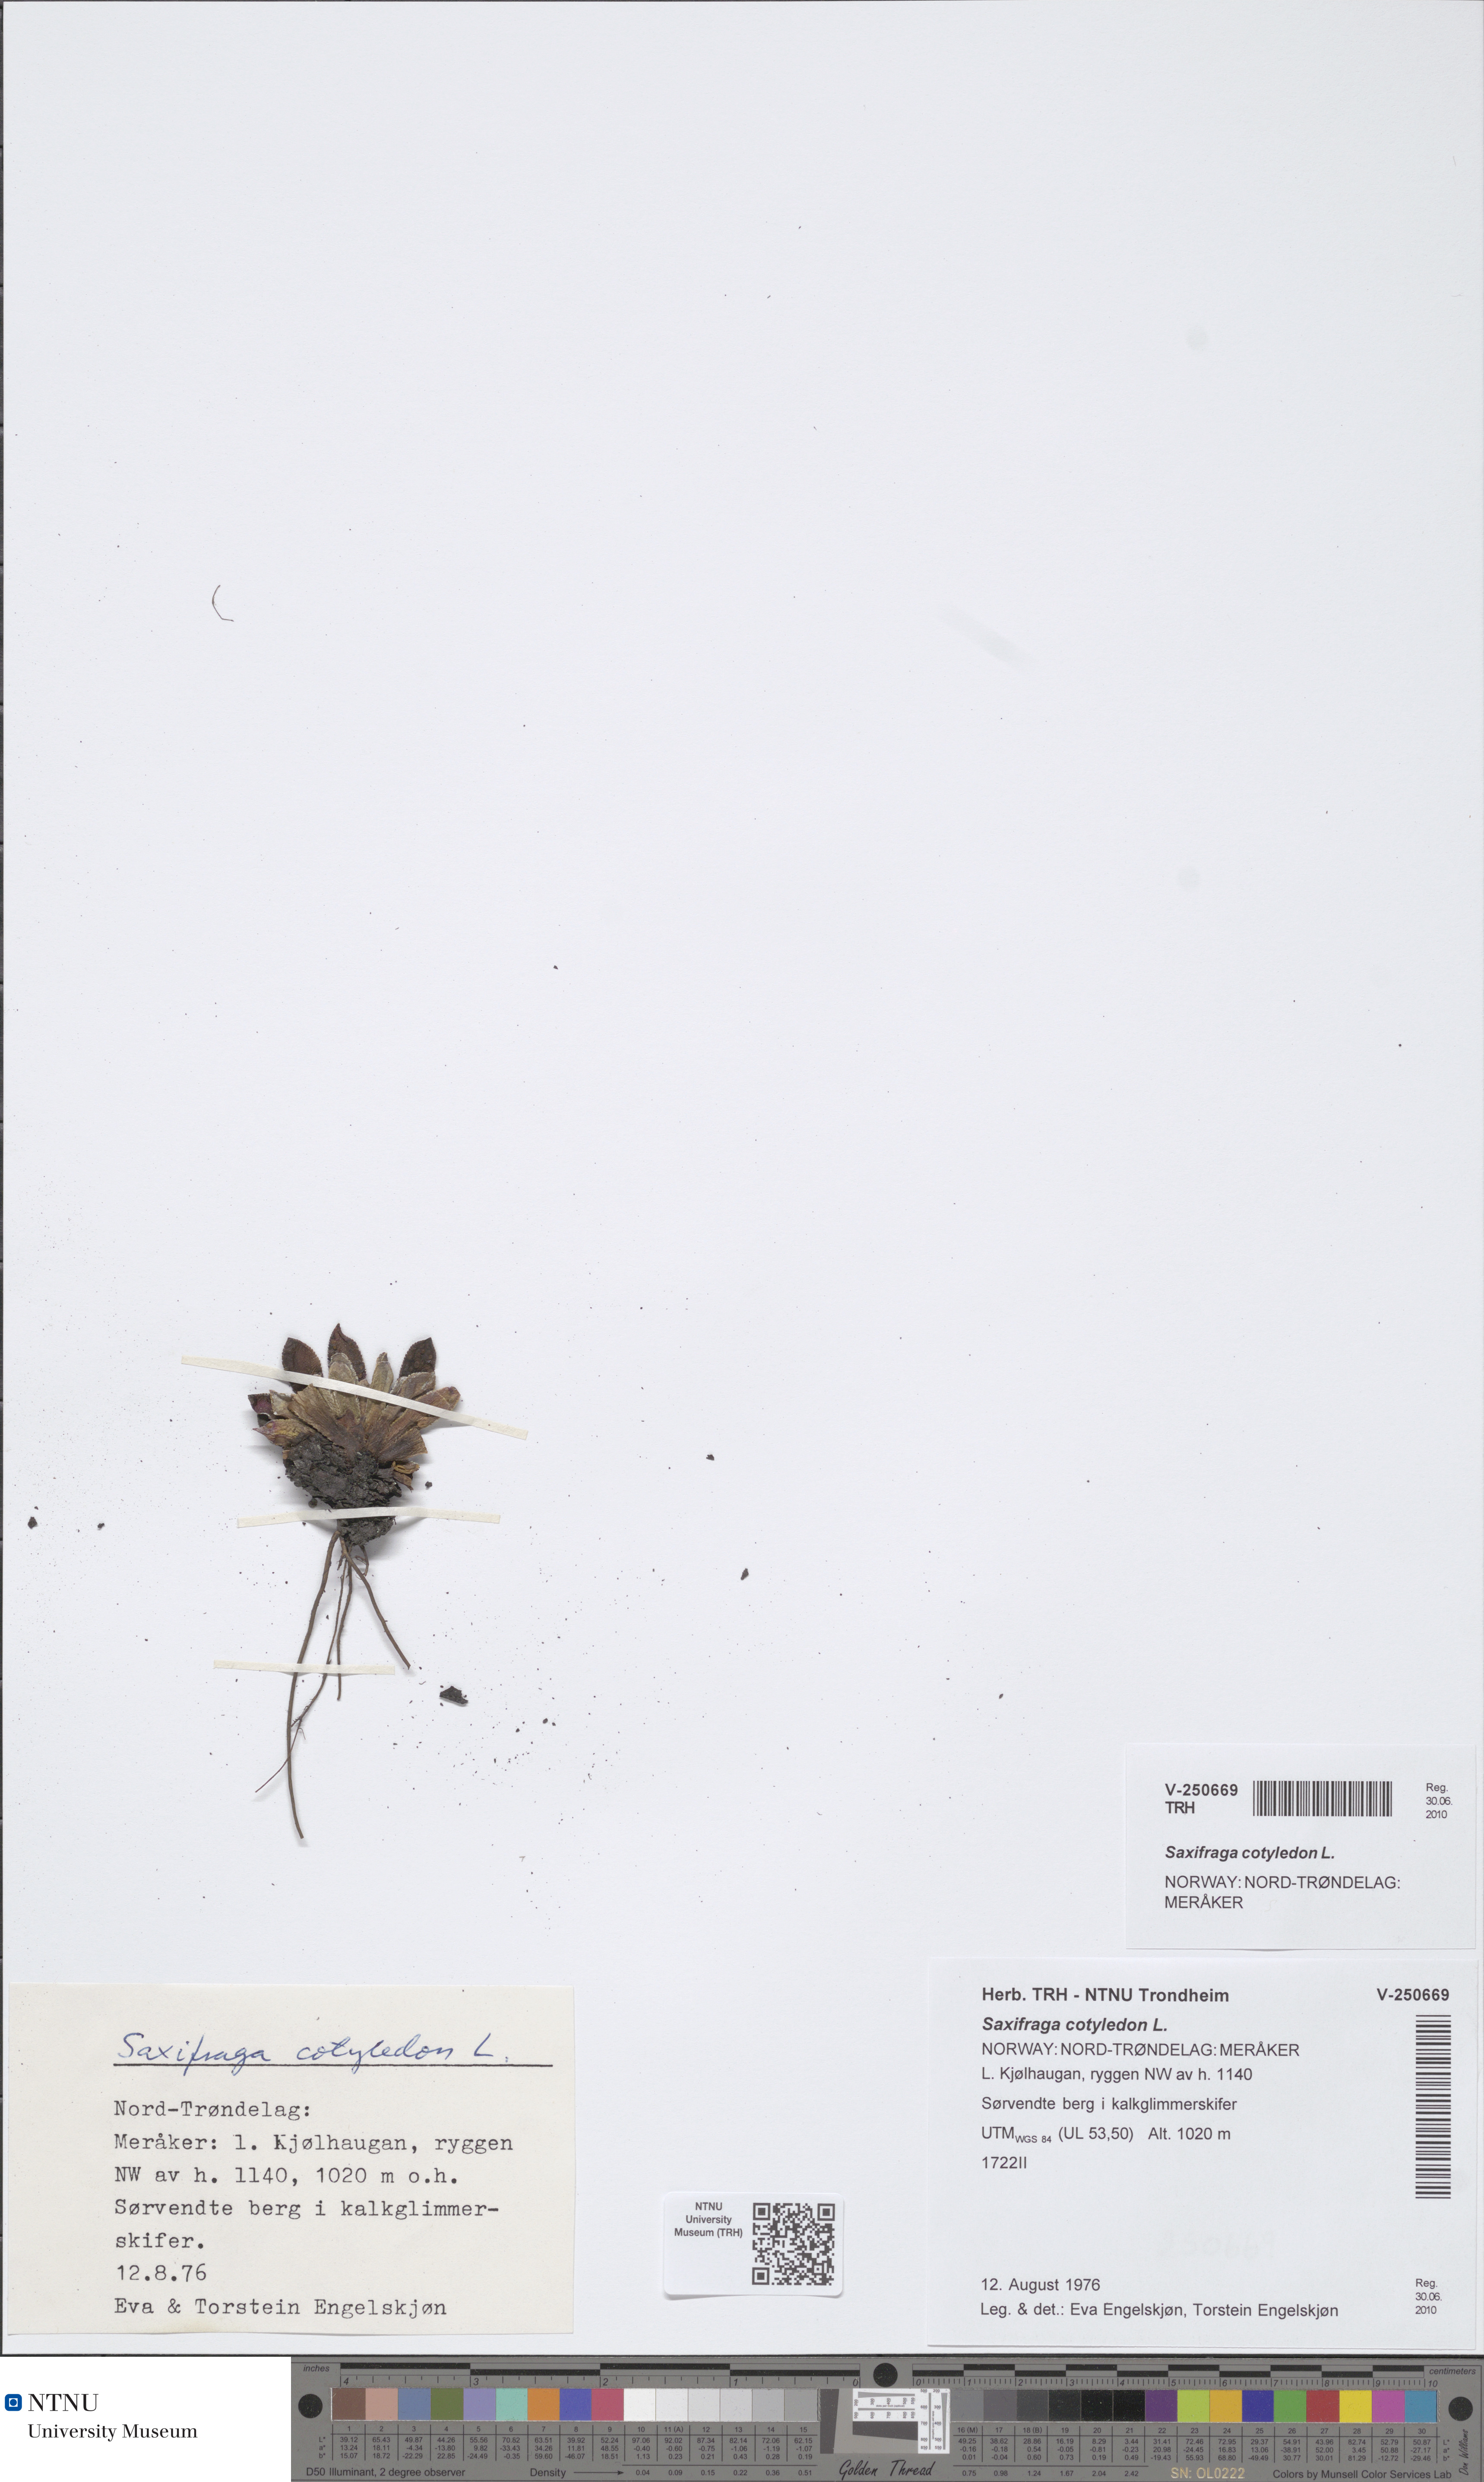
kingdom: Plantae
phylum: Tracheophyta
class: Magnoliopsida
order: Saxifragales
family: Saxifragaceae
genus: Saxifraga
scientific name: Saxifraga cotyledon
